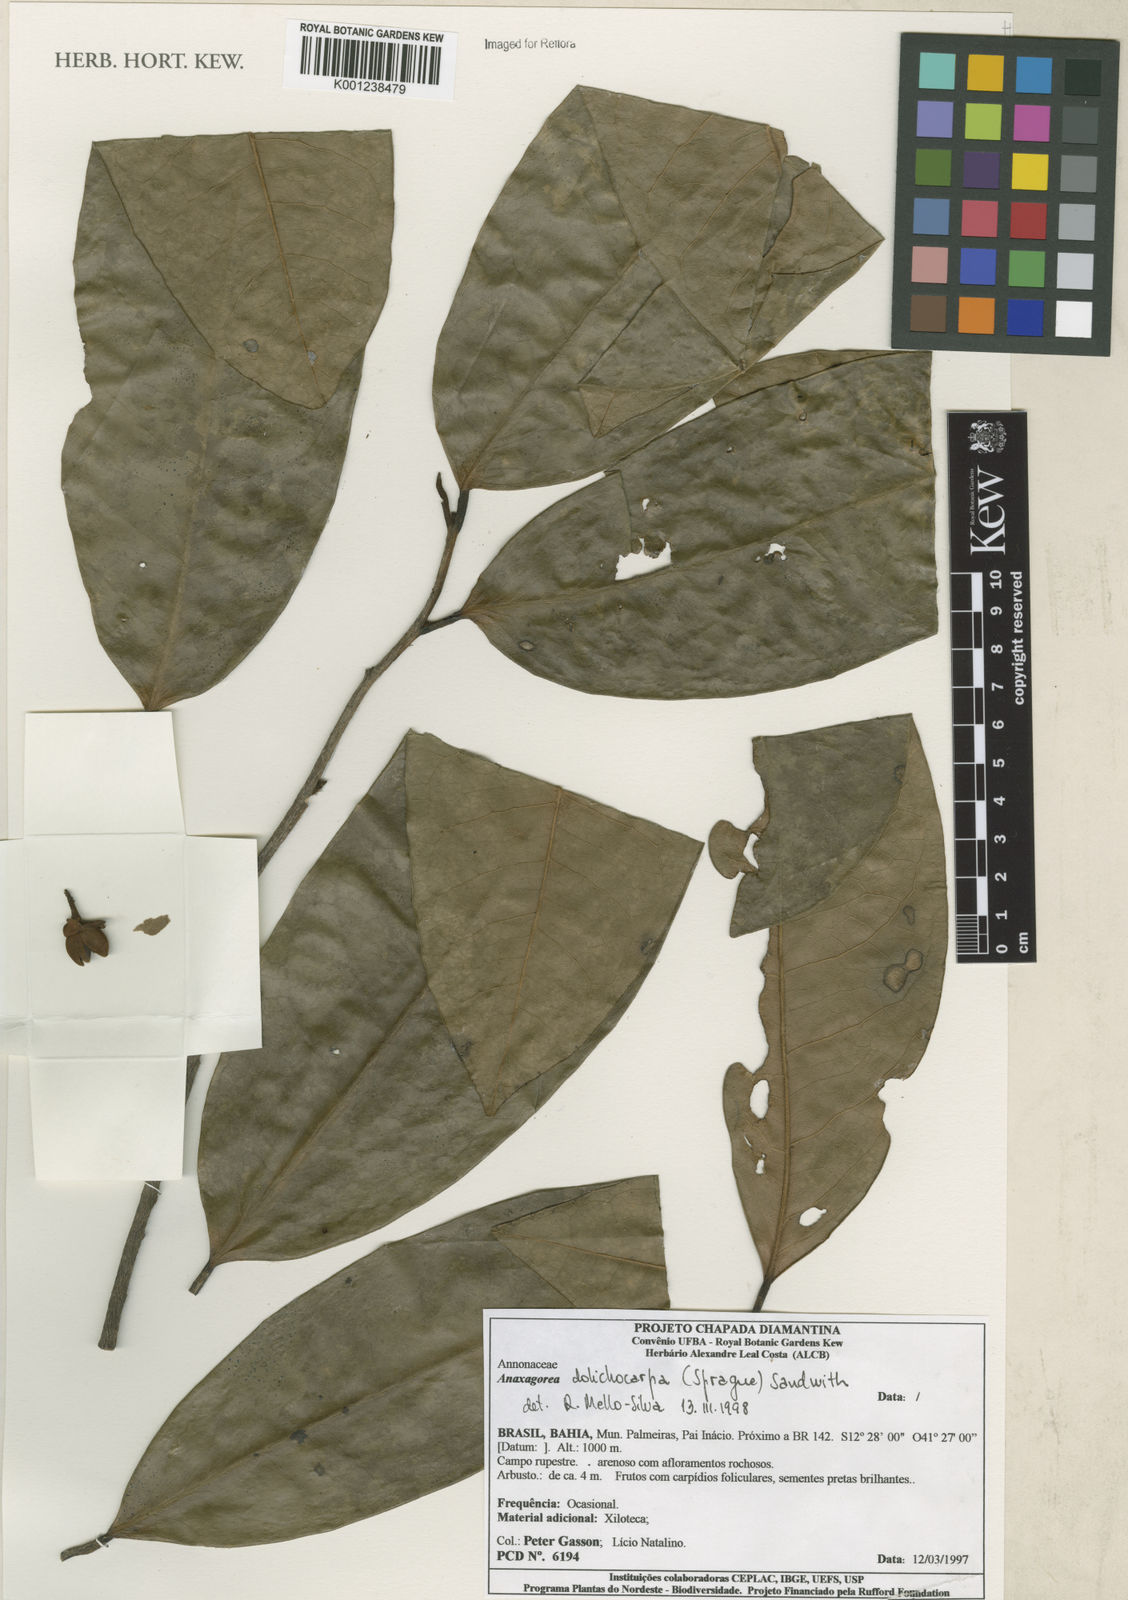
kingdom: Plantae
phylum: Tracheophyta
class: Magnoliopsida
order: Magnoliales
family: Annonaceae
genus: Anaxagorea
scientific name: Anaxagorea dolichocarpa
